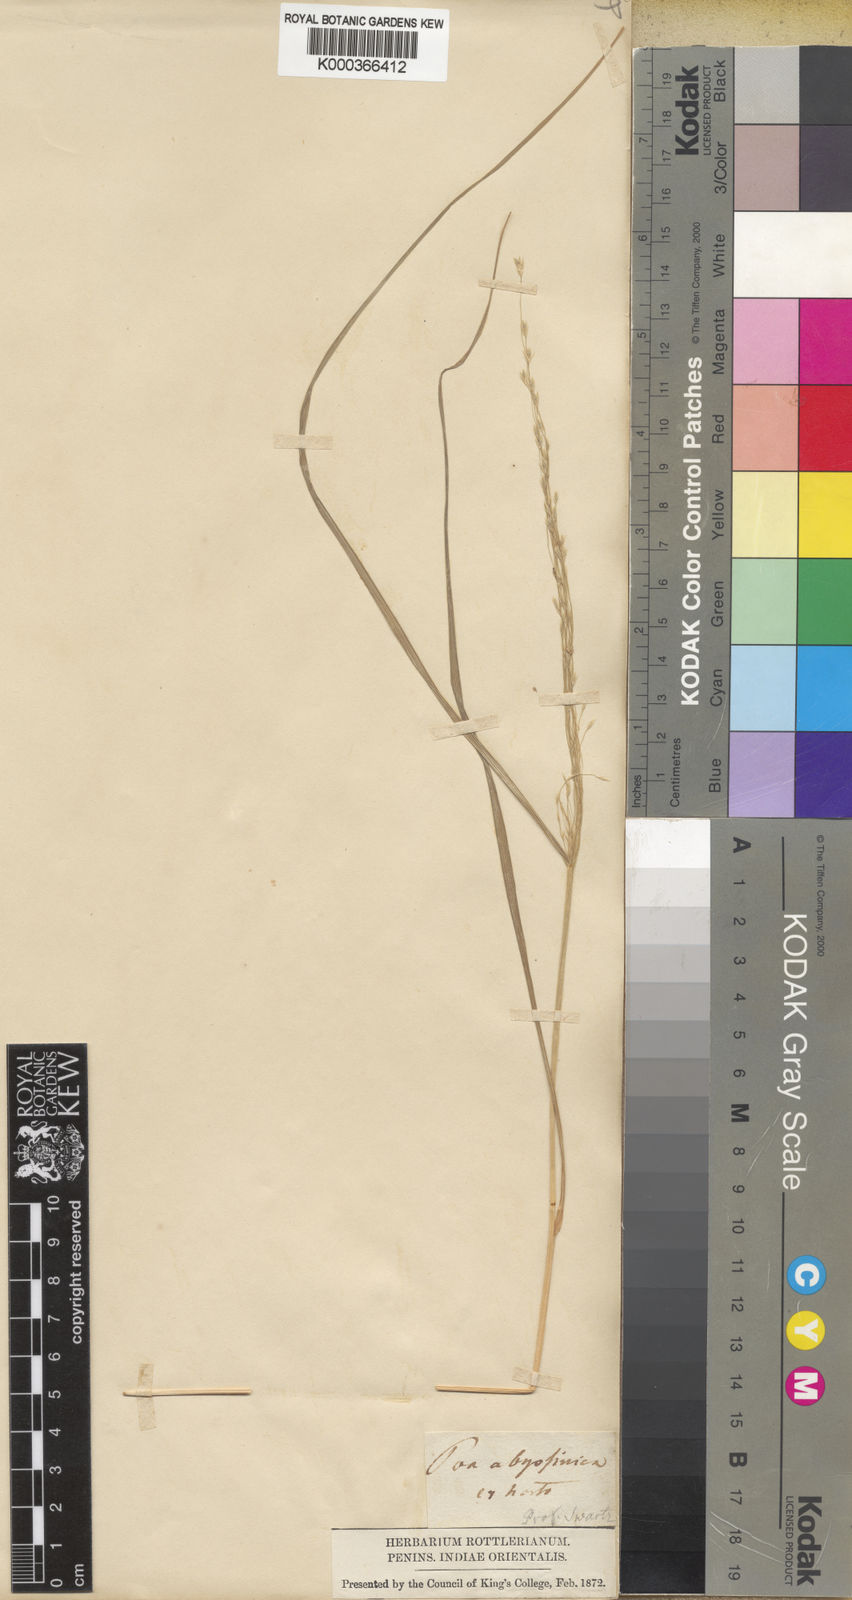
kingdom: Plantae
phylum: Tracheophyta
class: Liliopsida
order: Poales
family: Poaceae
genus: Eragrostis
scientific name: Eragrostis tef
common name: Teff
